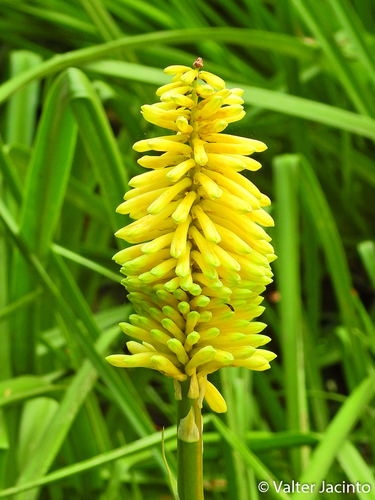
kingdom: Plantae
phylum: Tracheophyta
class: Liliopsida
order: Asparagales
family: Asphodelaceae
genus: Kniphofia
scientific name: Kniphofia ensifolia
